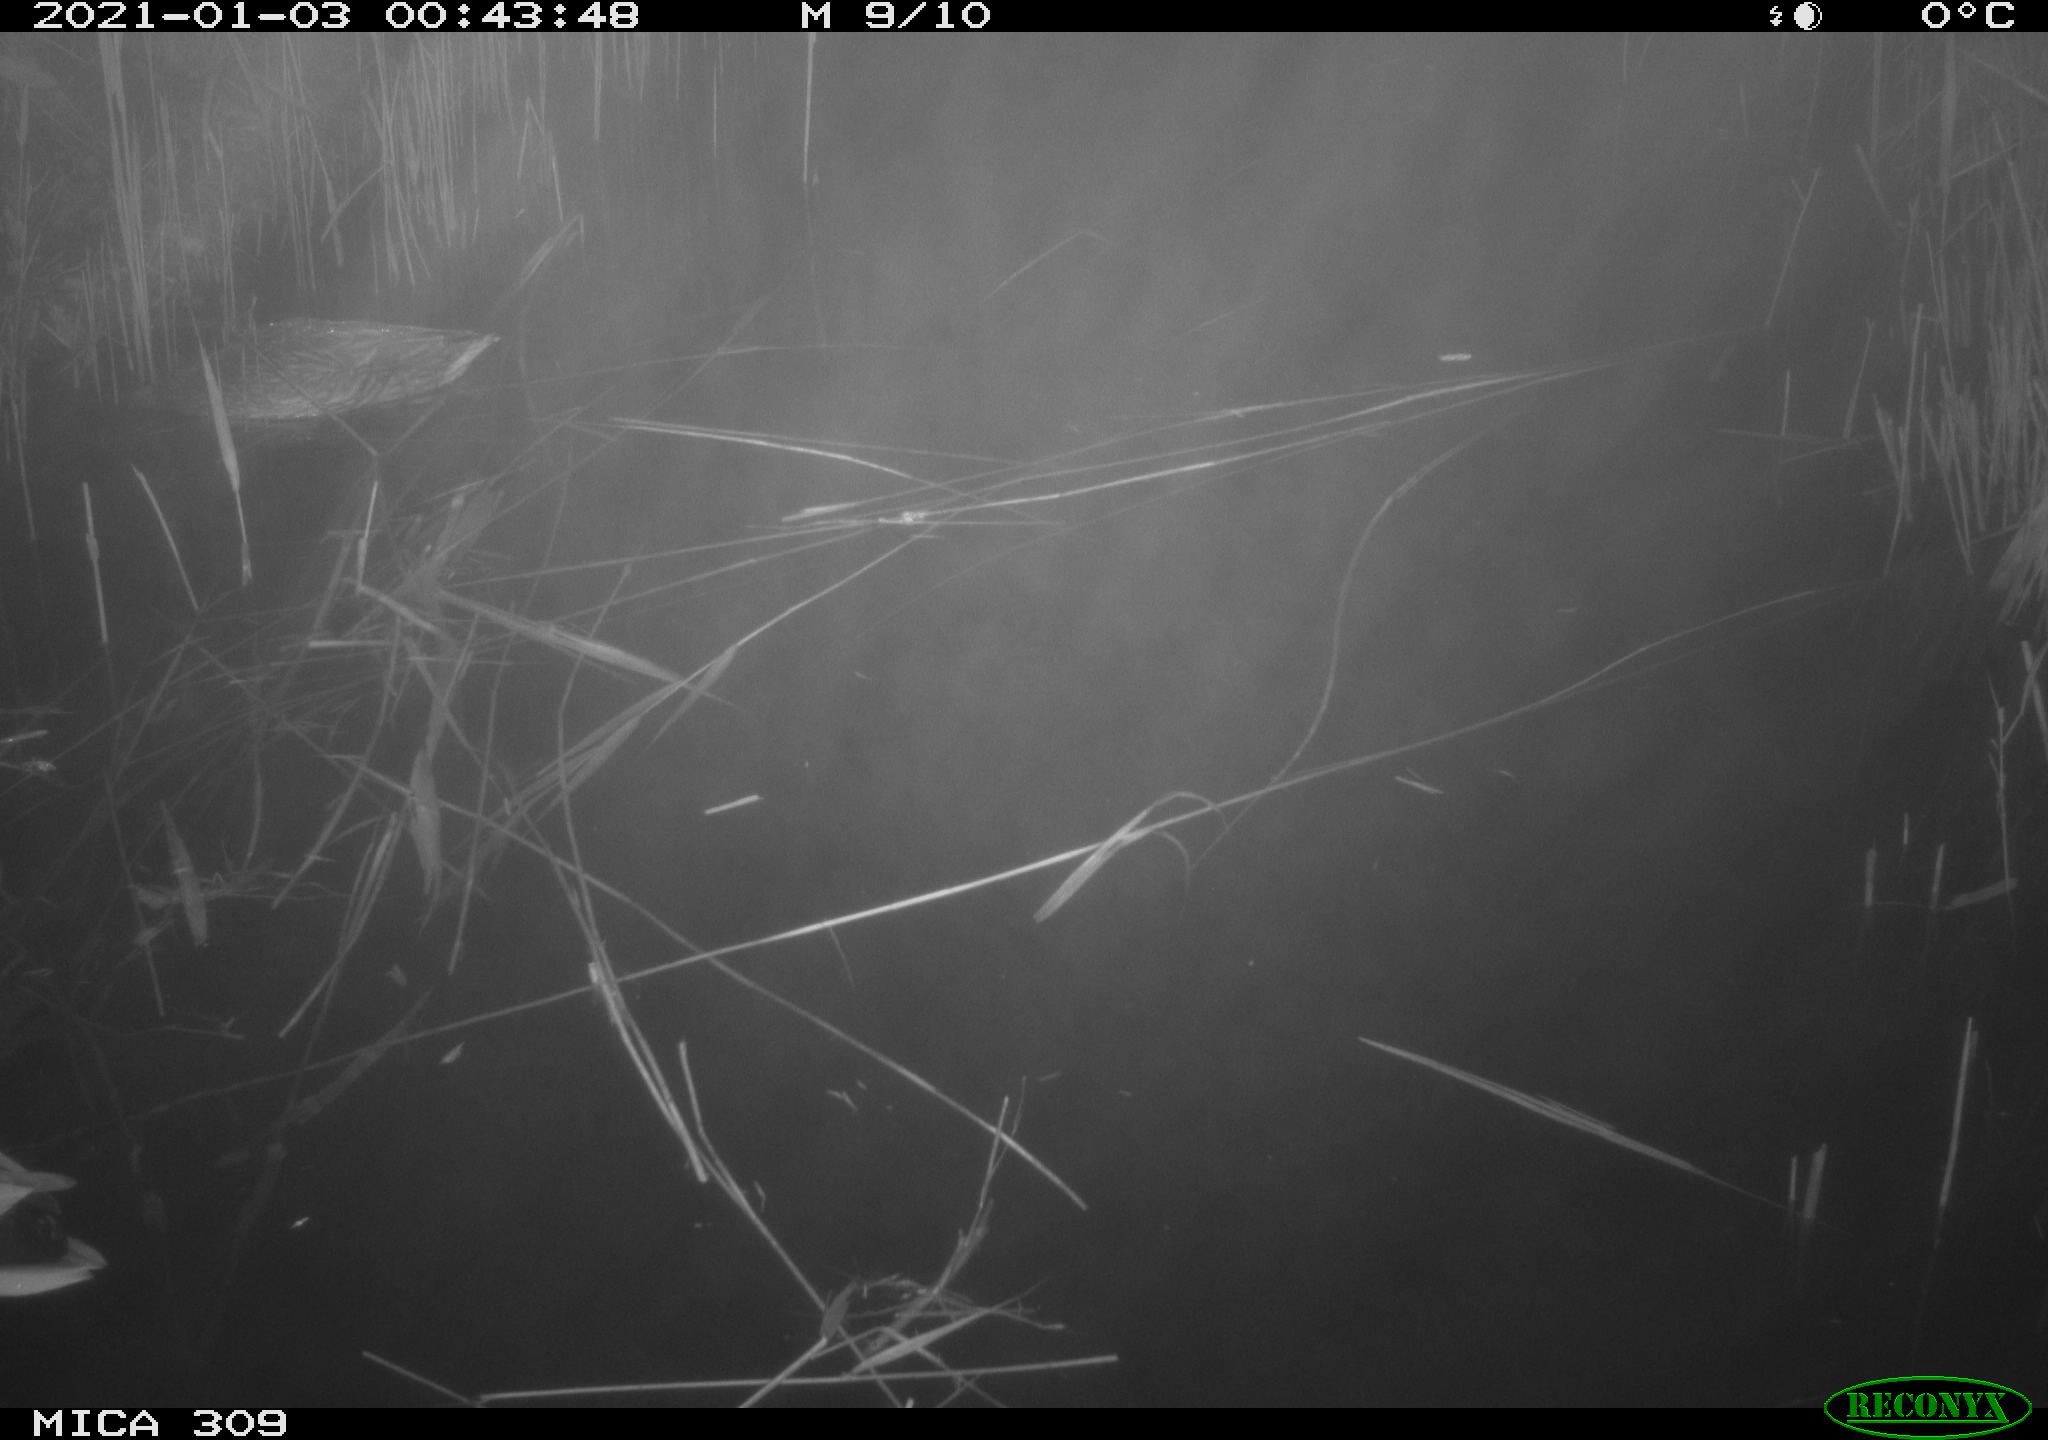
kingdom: Animalia
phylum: Chordata
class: Aves
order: Anseriformes
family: Anatidae
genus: Anas
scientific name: Anas platyrhynchos
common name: Mallard
